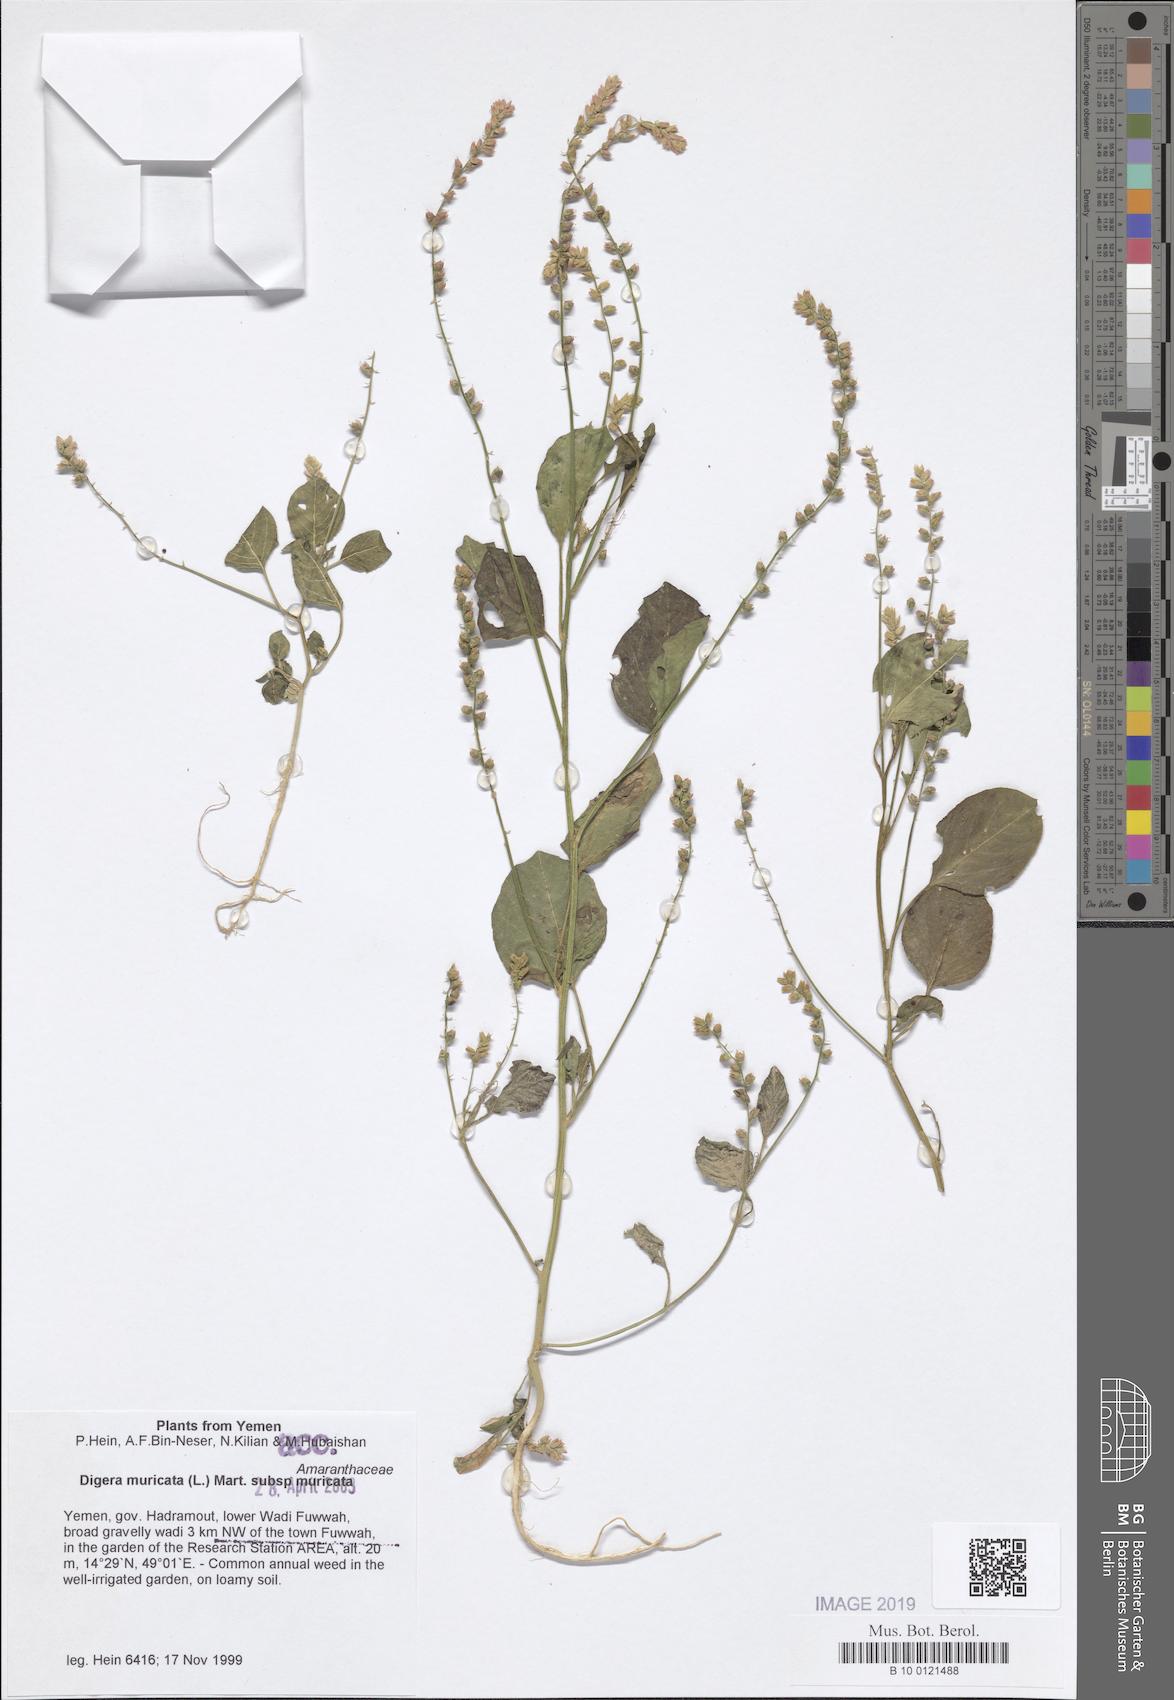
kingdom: Plantae
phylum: Tracheophyta
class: Magnoliopsida
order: Caryophyllales
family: Amaranthaceae
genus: Digera
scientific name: Digera muricata
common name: False amaranth
